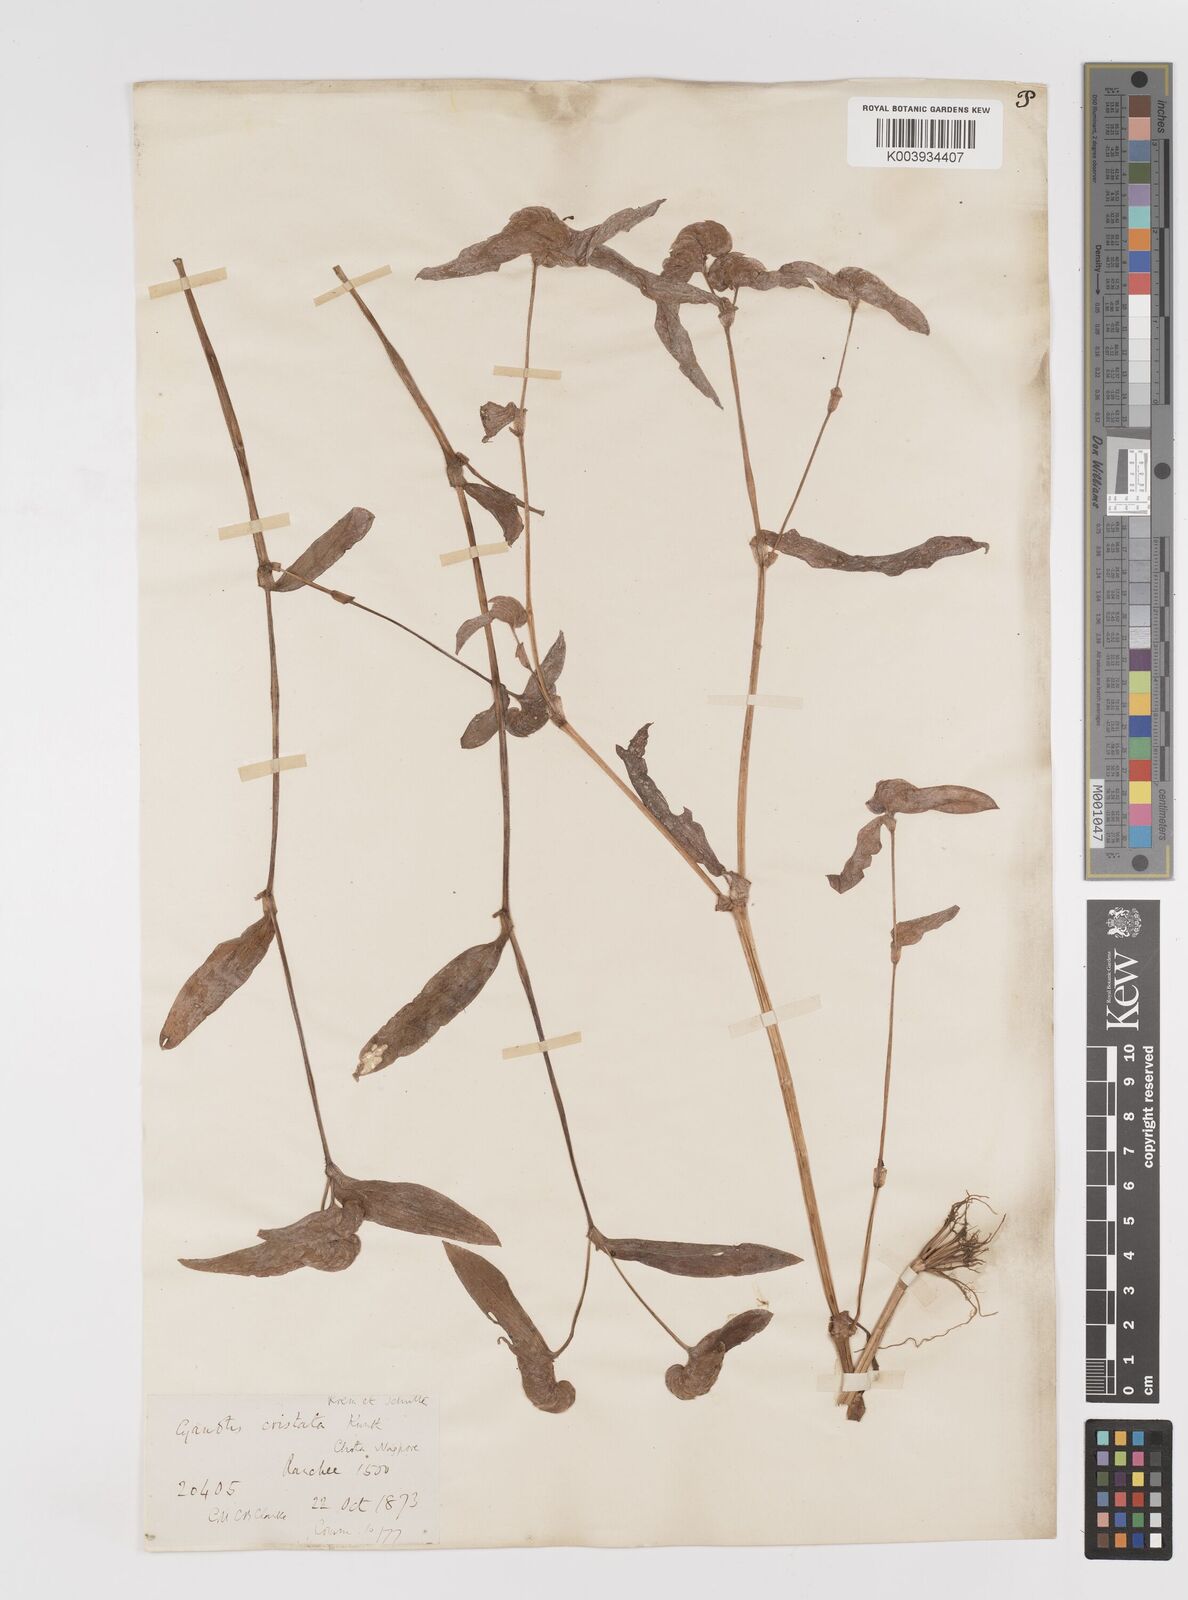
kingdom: Plantae
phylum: Tracheophyta
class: Liliopsida
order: Commelinales
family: Commelinaceae
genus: Cyanotis
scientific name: Cyanotis cristata
